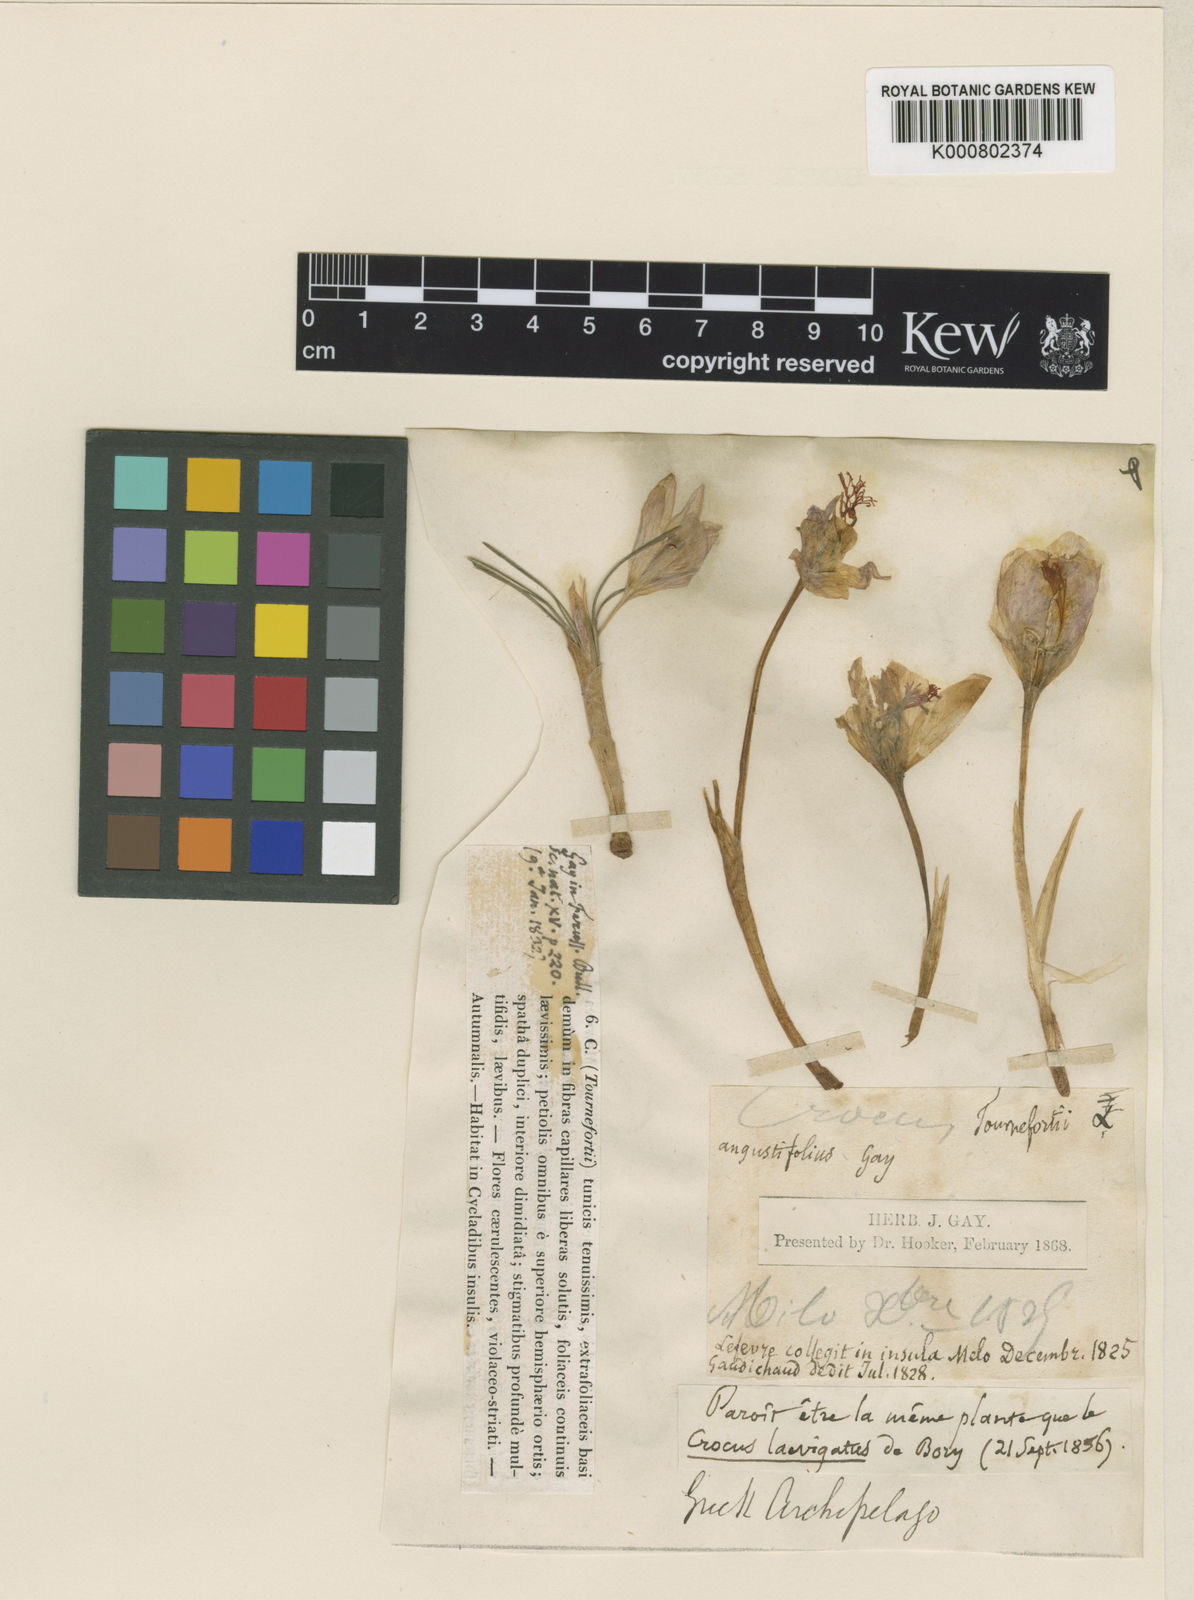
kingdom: Plantae
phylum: Tracheophyta
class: Liliopsida
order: Asparagales
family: Iridaceae
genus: Crocus
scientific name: Crocus tournefortii
